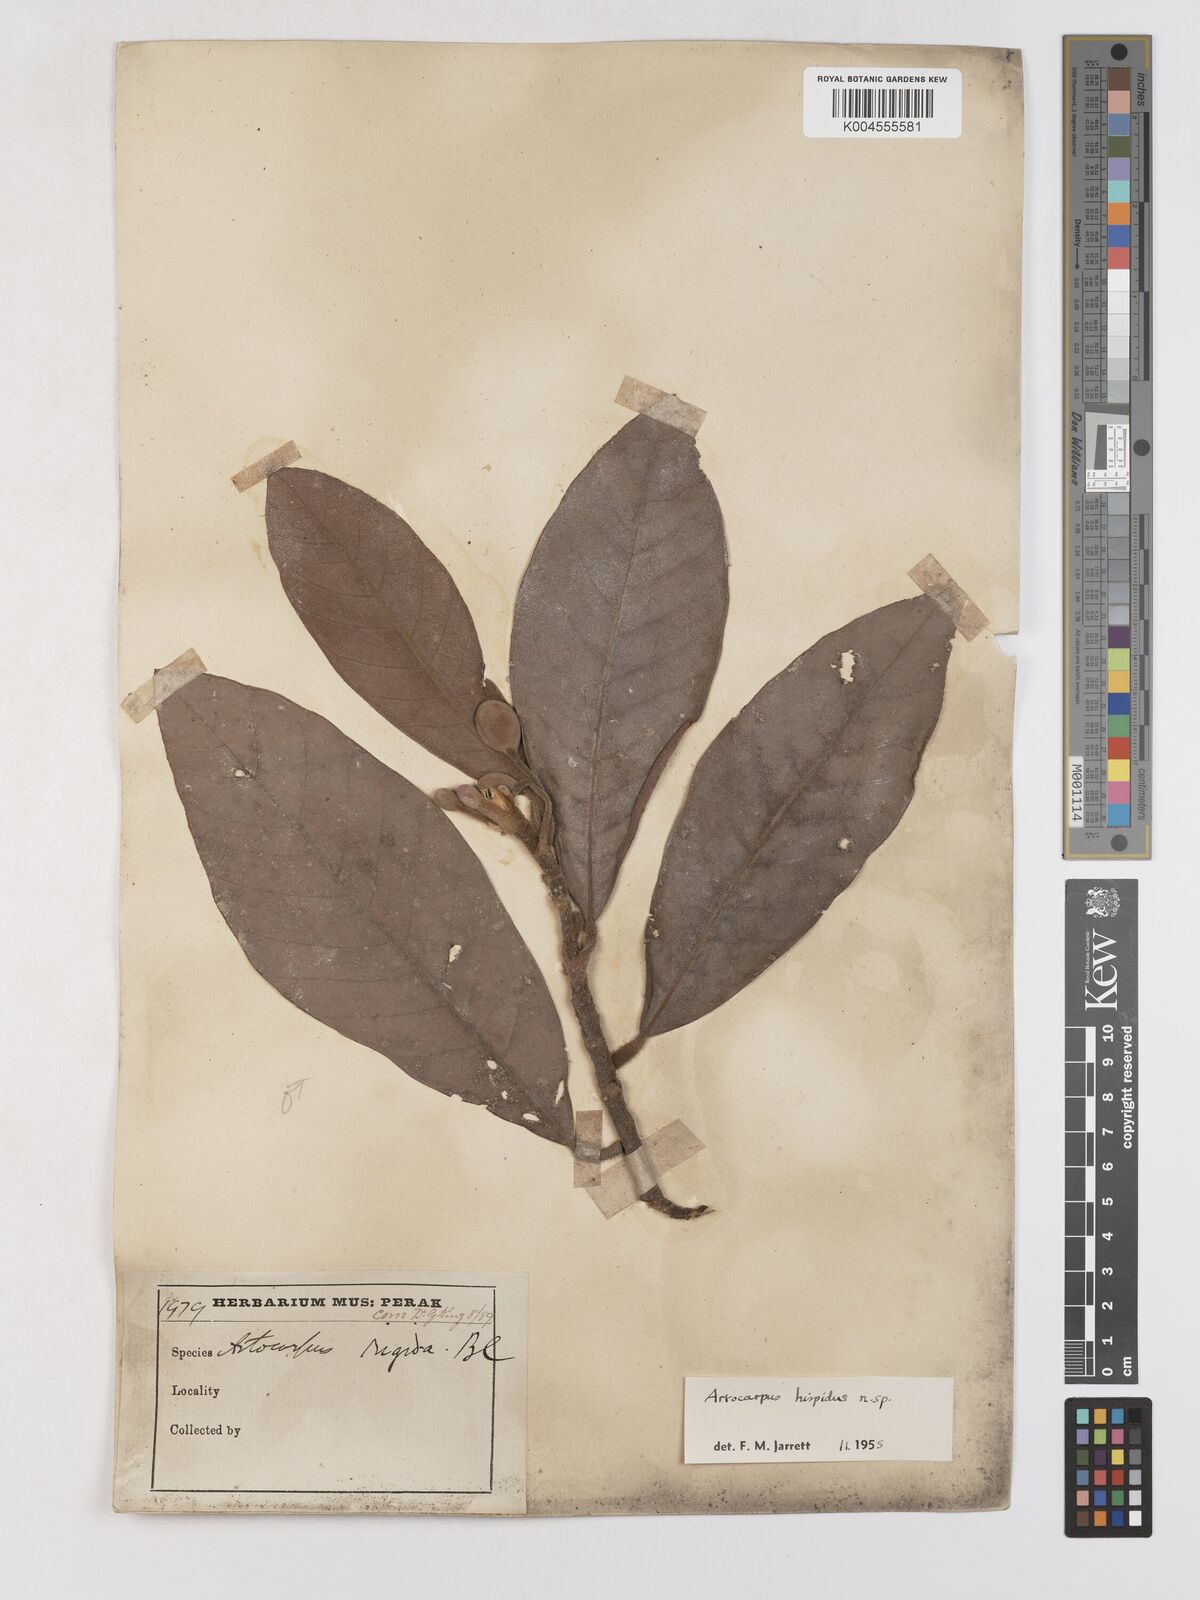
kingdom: Plantae
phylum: Tracheophyta
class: Magnoliopsida
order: Rosales
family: Moraceae
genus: Artocarpus
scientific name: Artocarpus hispidus
